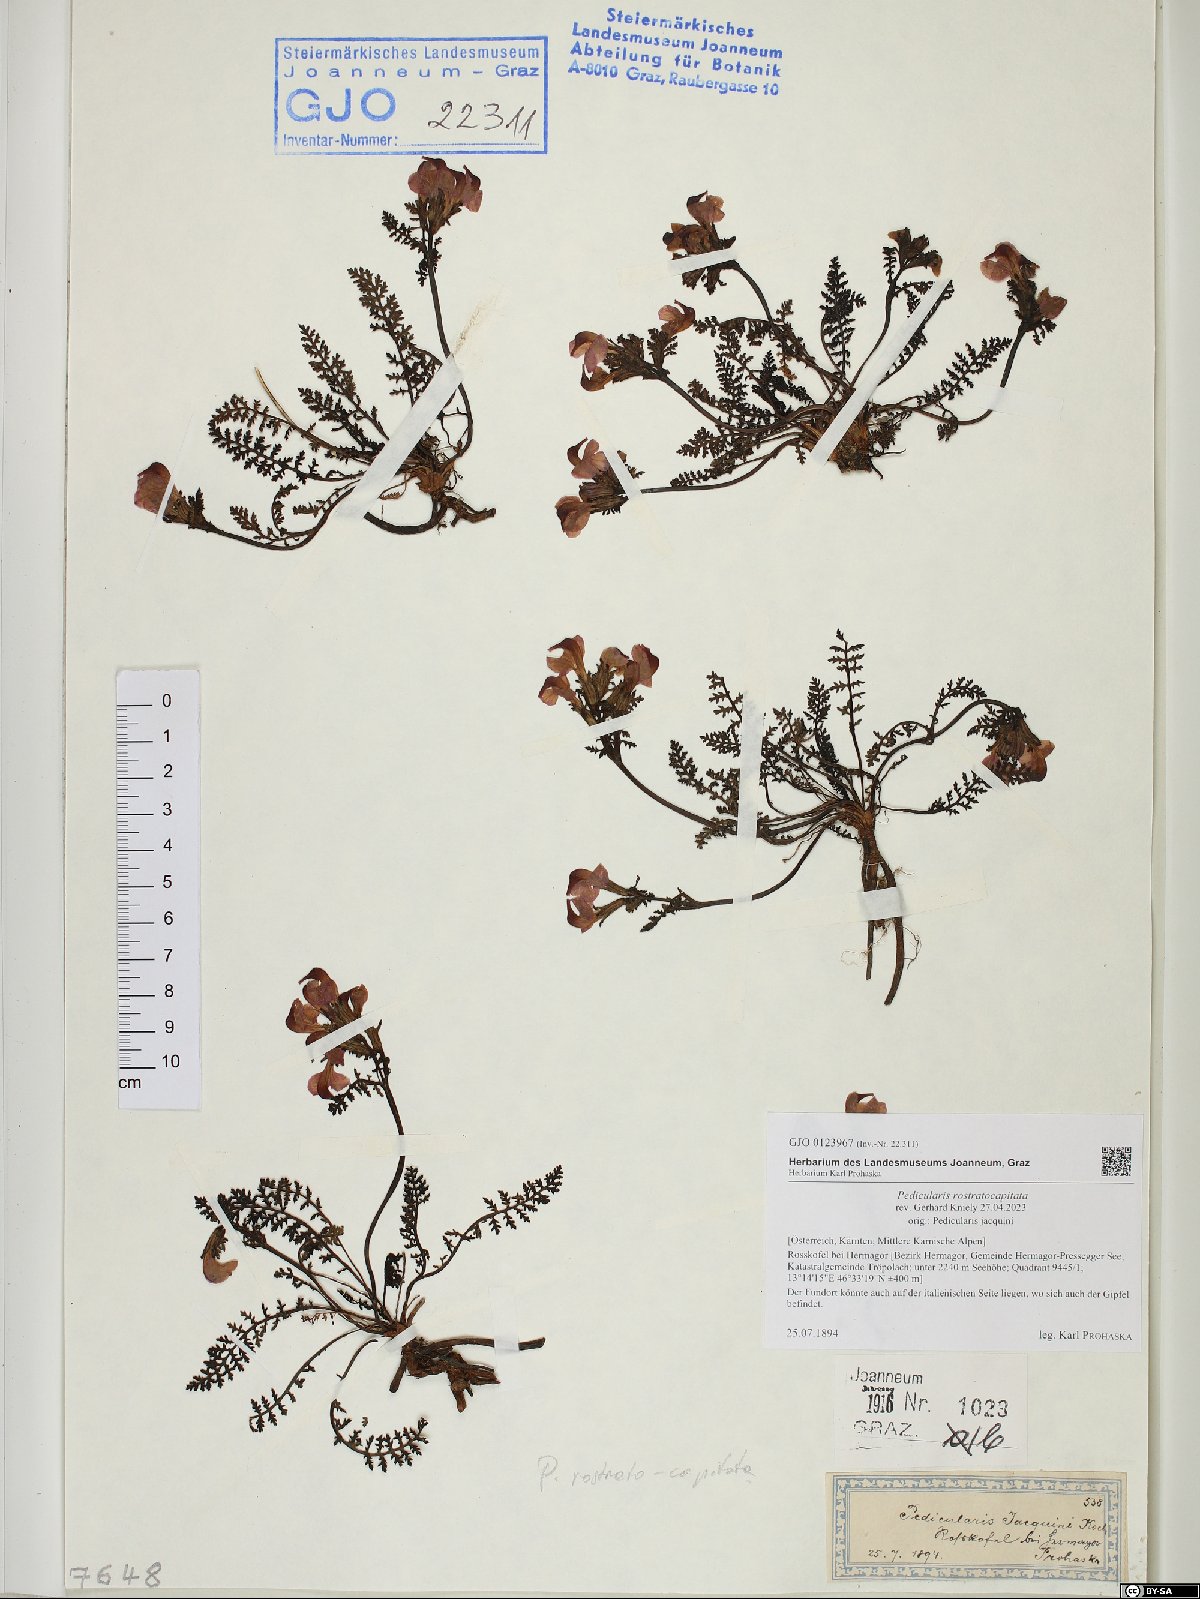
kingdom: Plantae
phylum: Tracheophyta
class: Magnoliopsida
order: Lamiales
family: Orobanchaceae
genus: Pedicularis
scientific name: Pedicularis rostratocapitata
